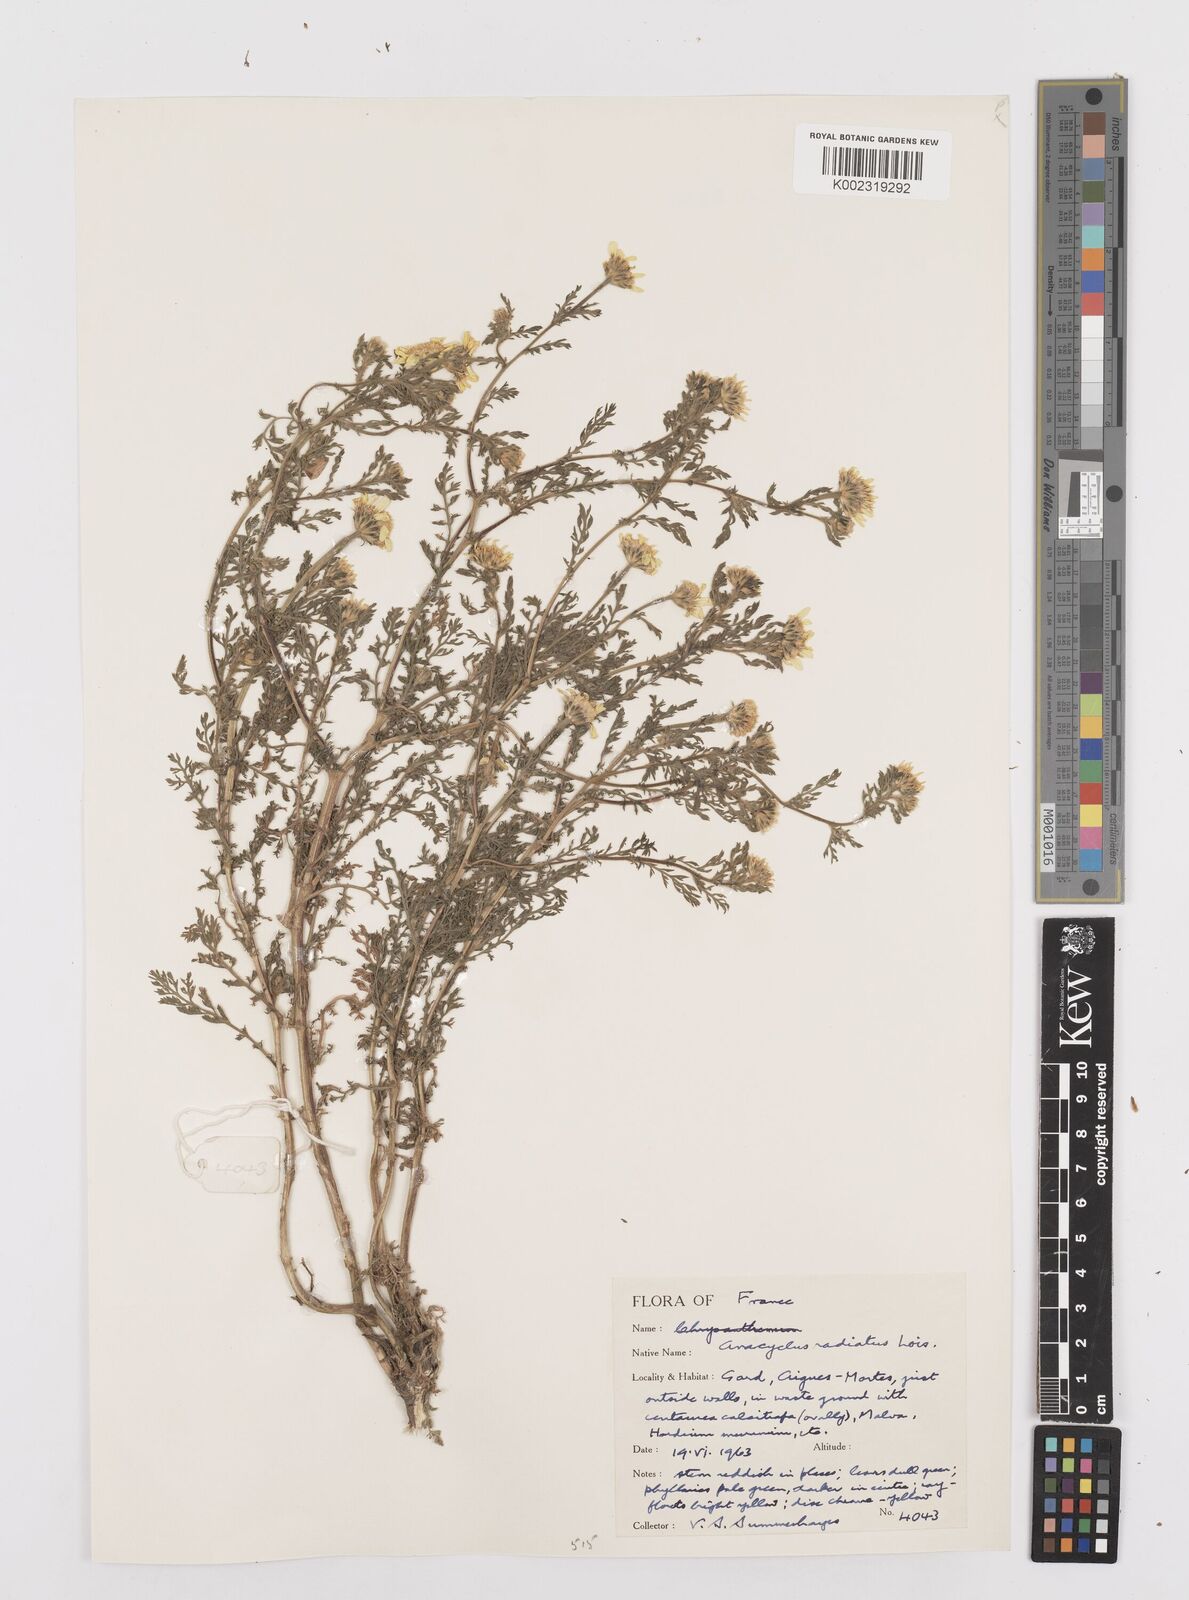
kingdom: Plantae
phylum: Tracheophyta
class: Magnoliopsida
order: Asterales
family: Asteraceae
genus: Anacyclus
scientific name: Anacyclus radiatus
